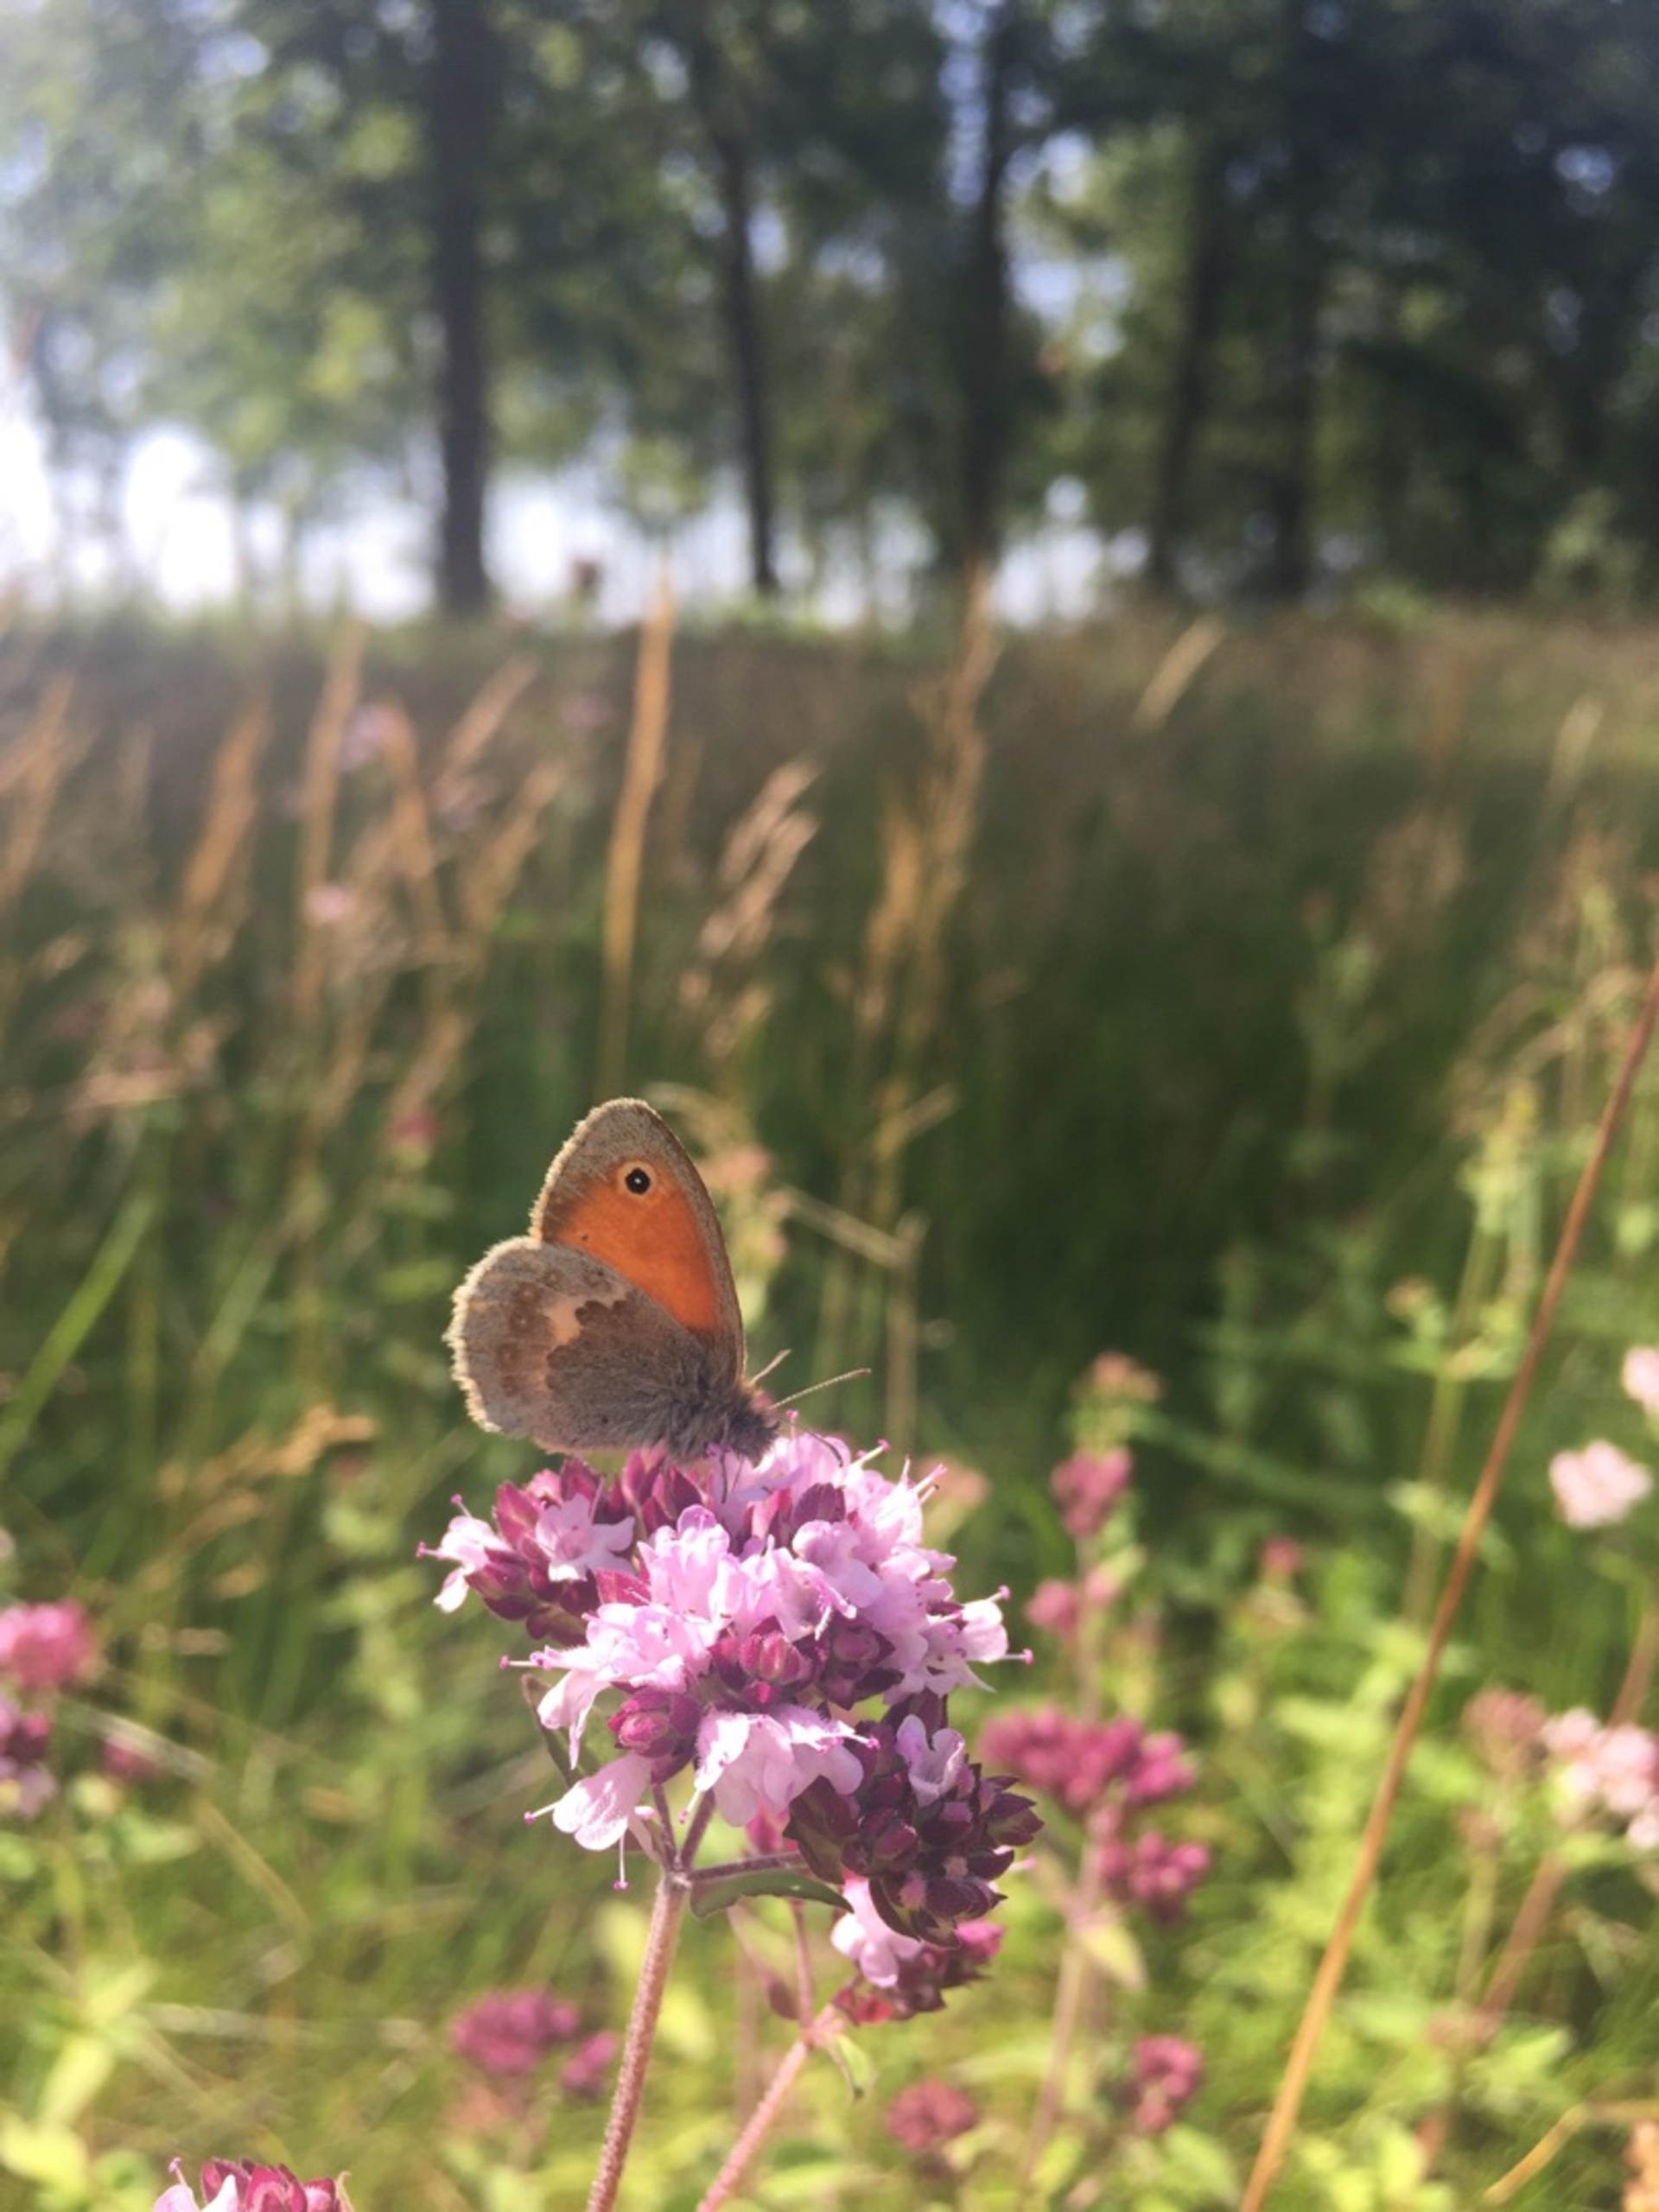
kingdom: Animalia
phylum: Arthropoda
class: Insecta
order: Lepidoptera
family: Nymphalidae
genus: Coenonympha
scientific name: Coenonympha pamphilus
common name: Okkergul randøje
